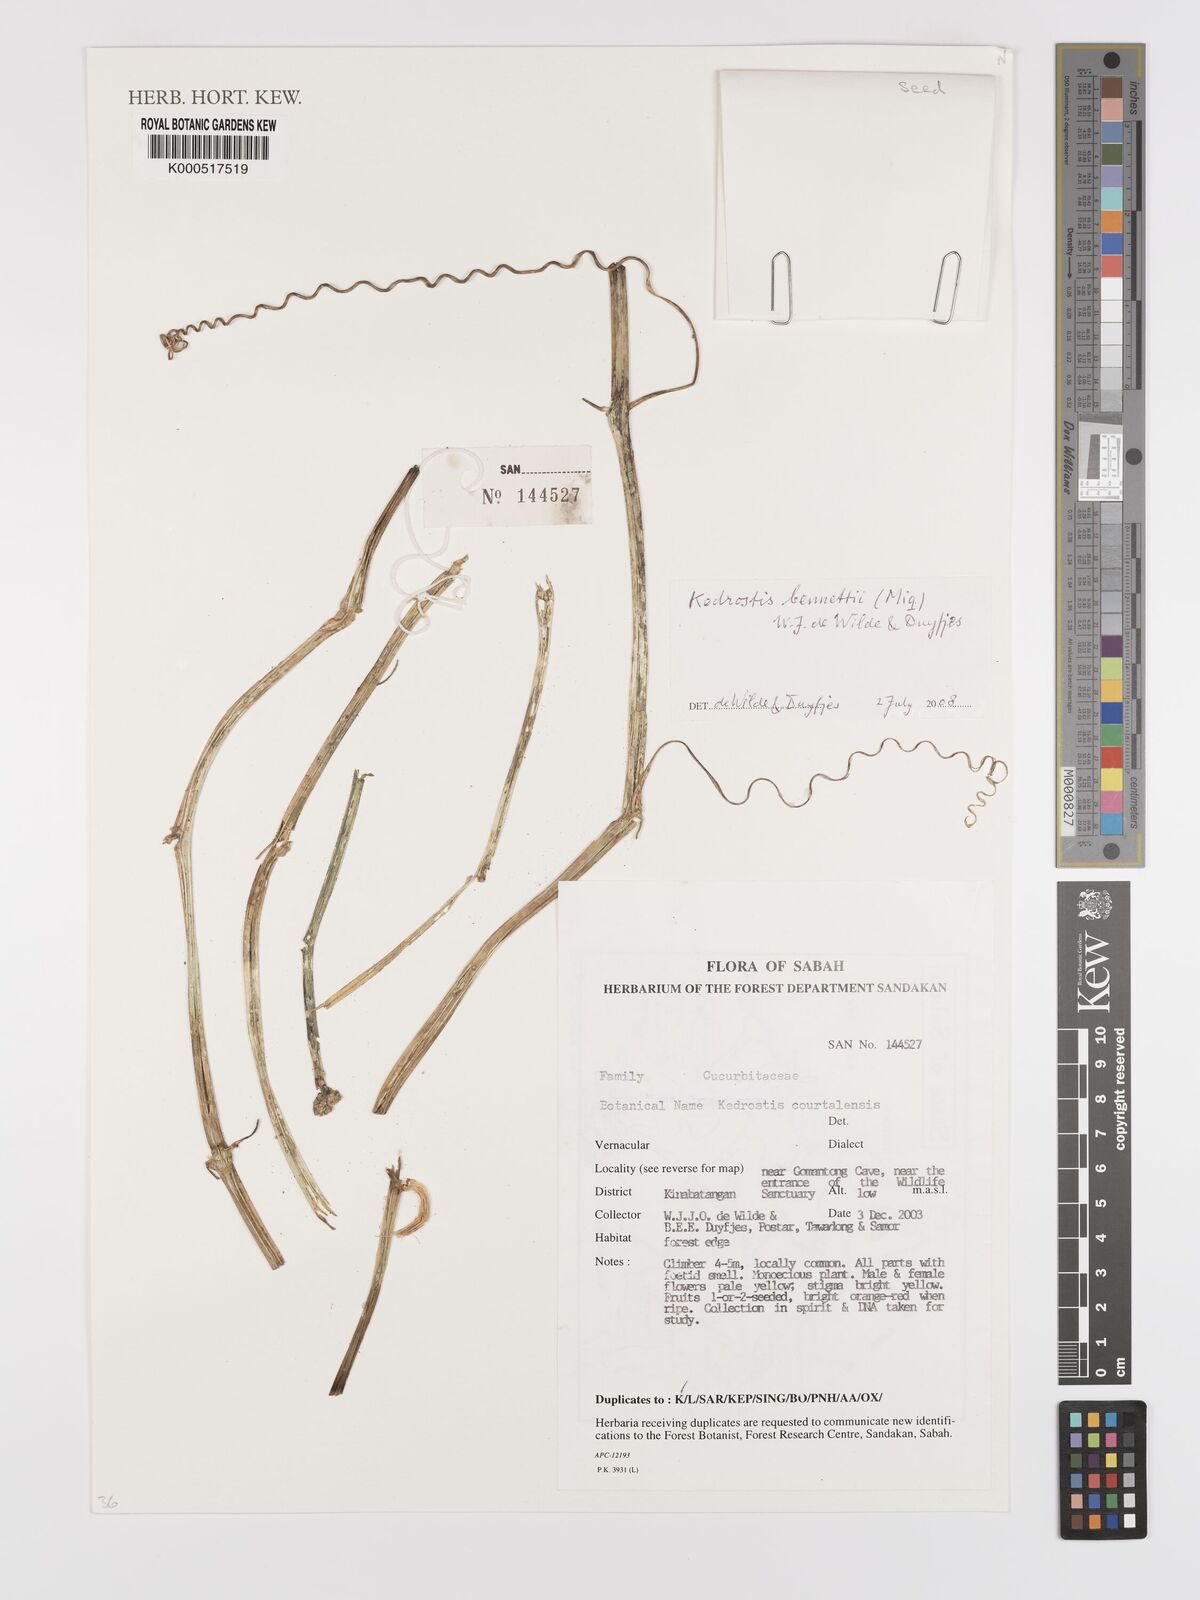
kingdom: Plantae
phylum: Tracheophyta
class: Magnoliopsida
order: Cucurbitales
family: Cucurbitaceae
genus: Kedrostis
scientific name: Kedrostis courtallensis
